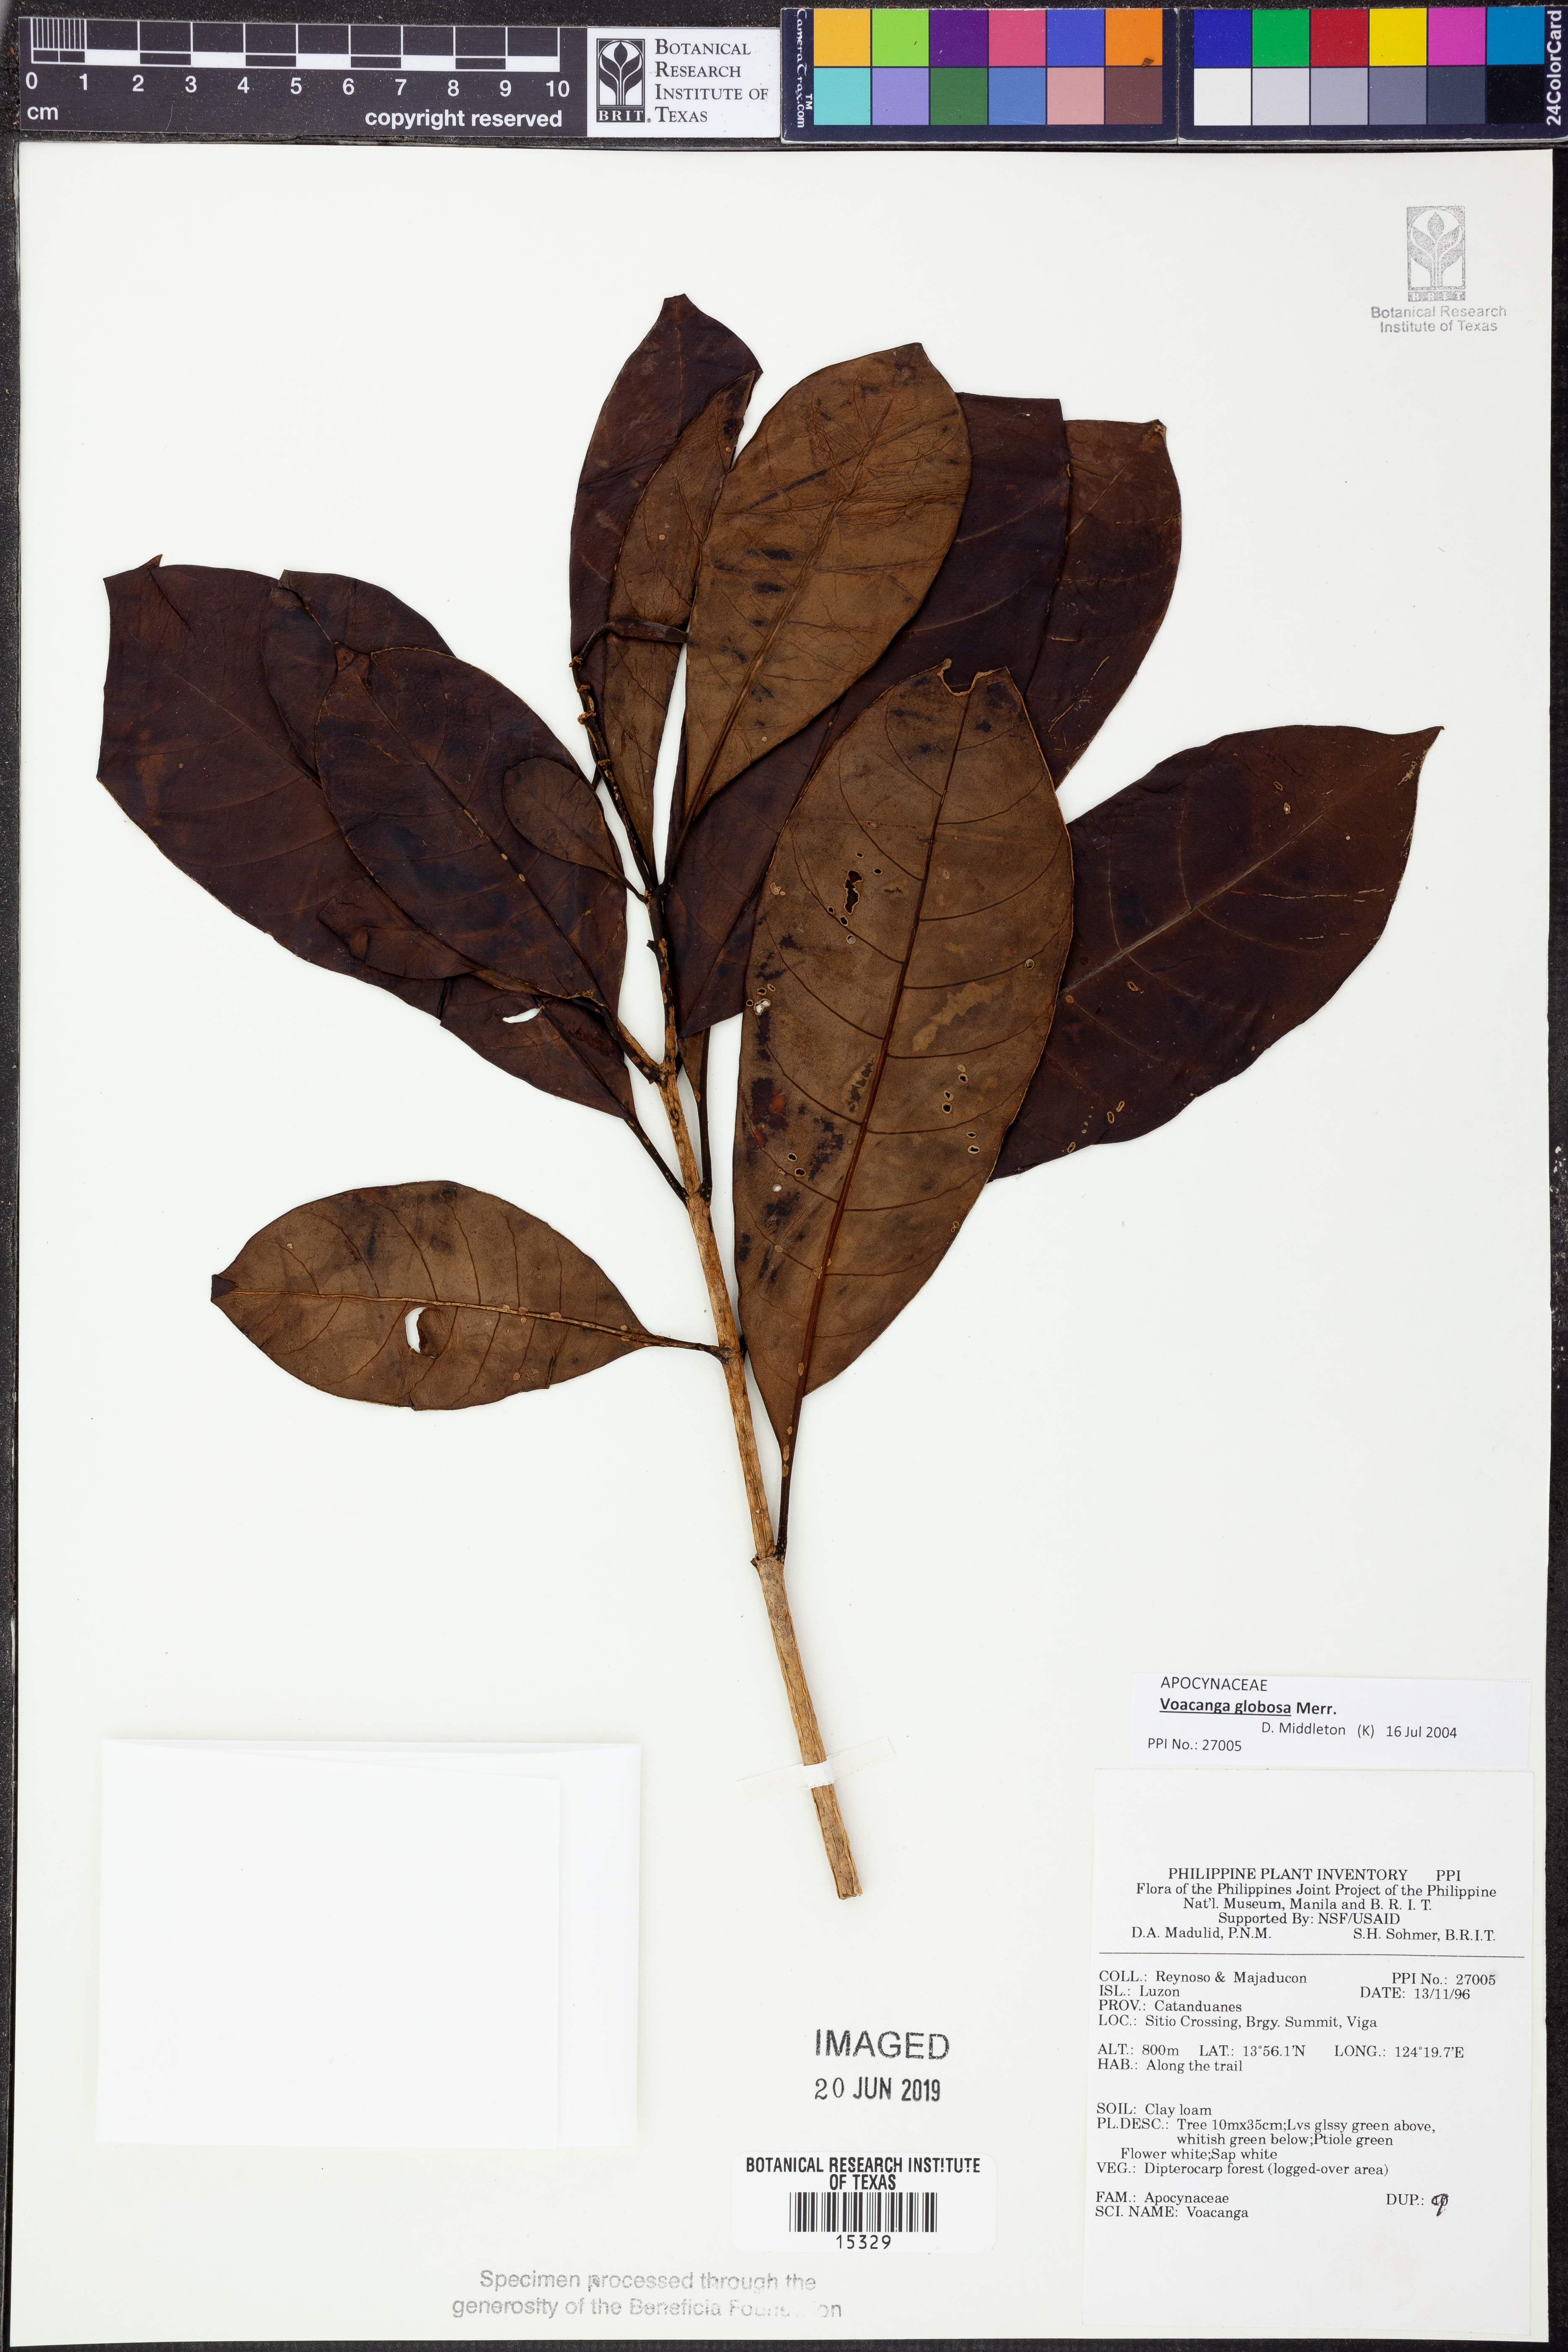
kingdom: Plantae
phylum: Tracheophyta
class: Magnoliopsida
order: Gentianales
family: Apocynaceae
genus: Voacanga
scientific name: Voacanga globosa
